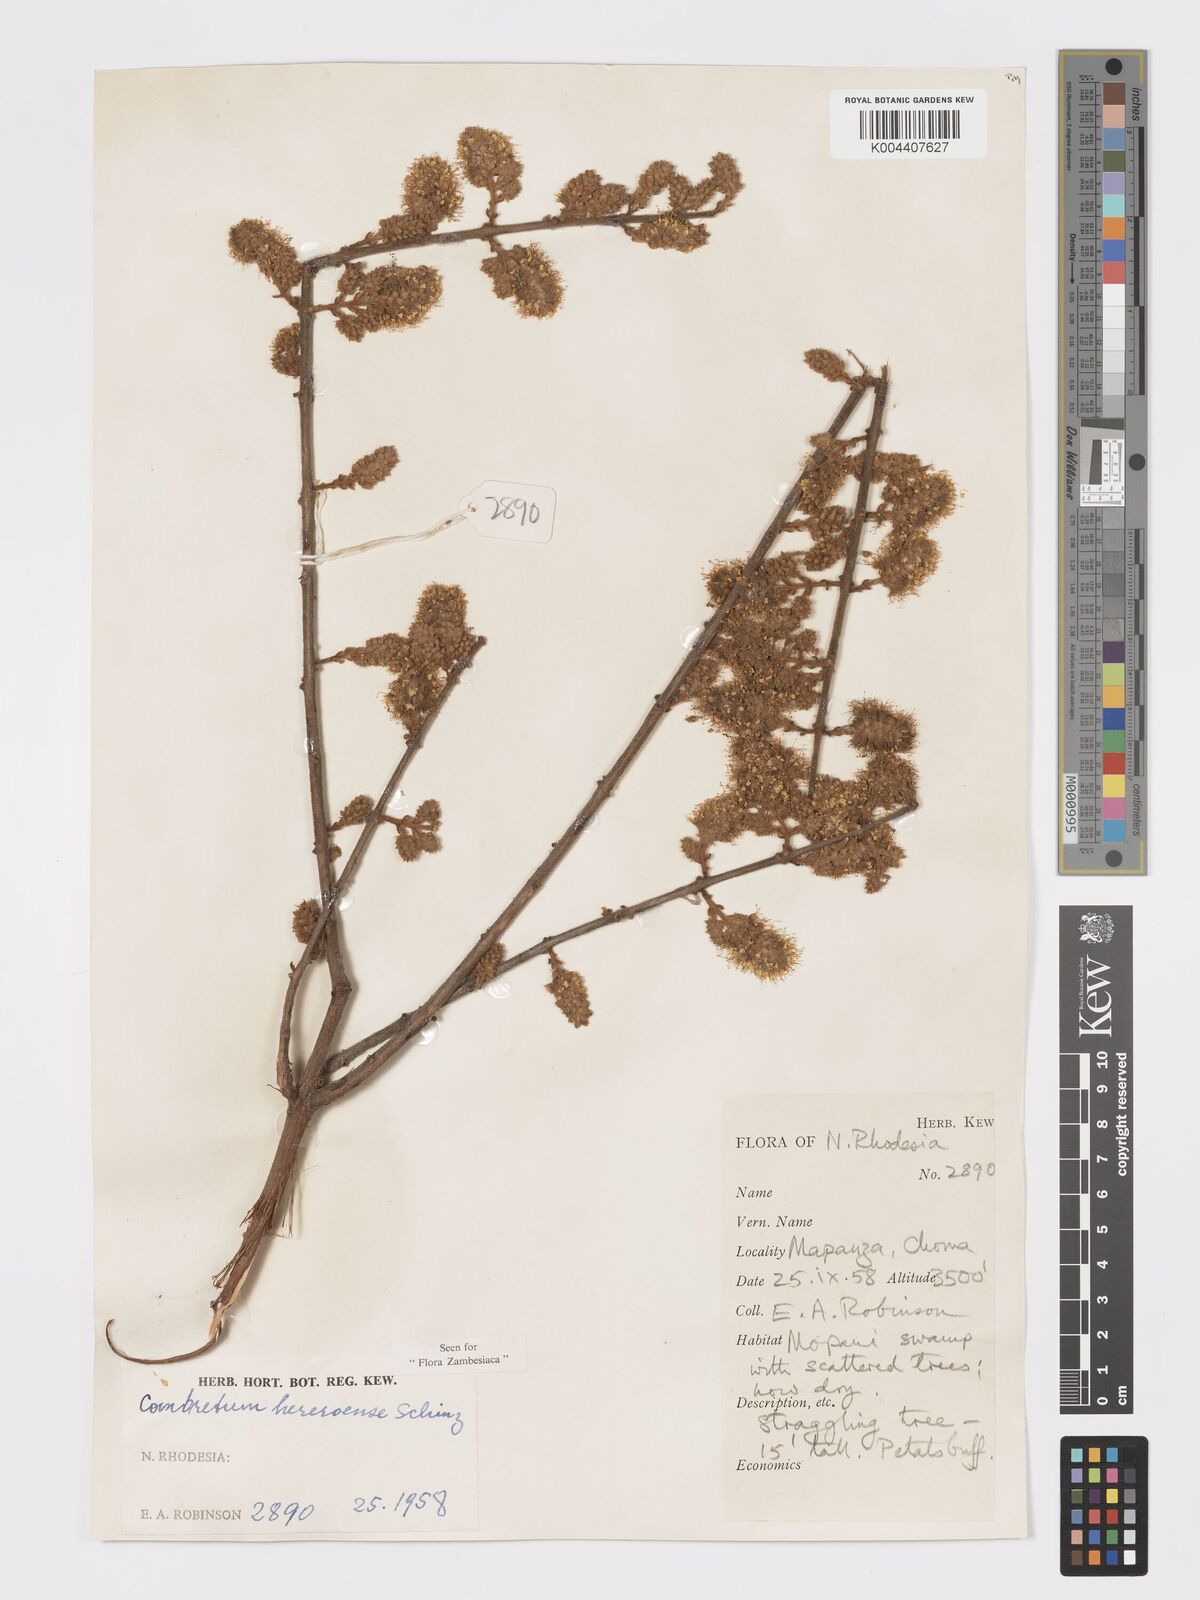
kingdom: Plantae
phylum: Tracheophyta
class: Magnoliopsida
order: Myrtales
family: Combretaceae
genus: Combretum
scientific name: Combretum hereroense
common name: Russet bushwillow
